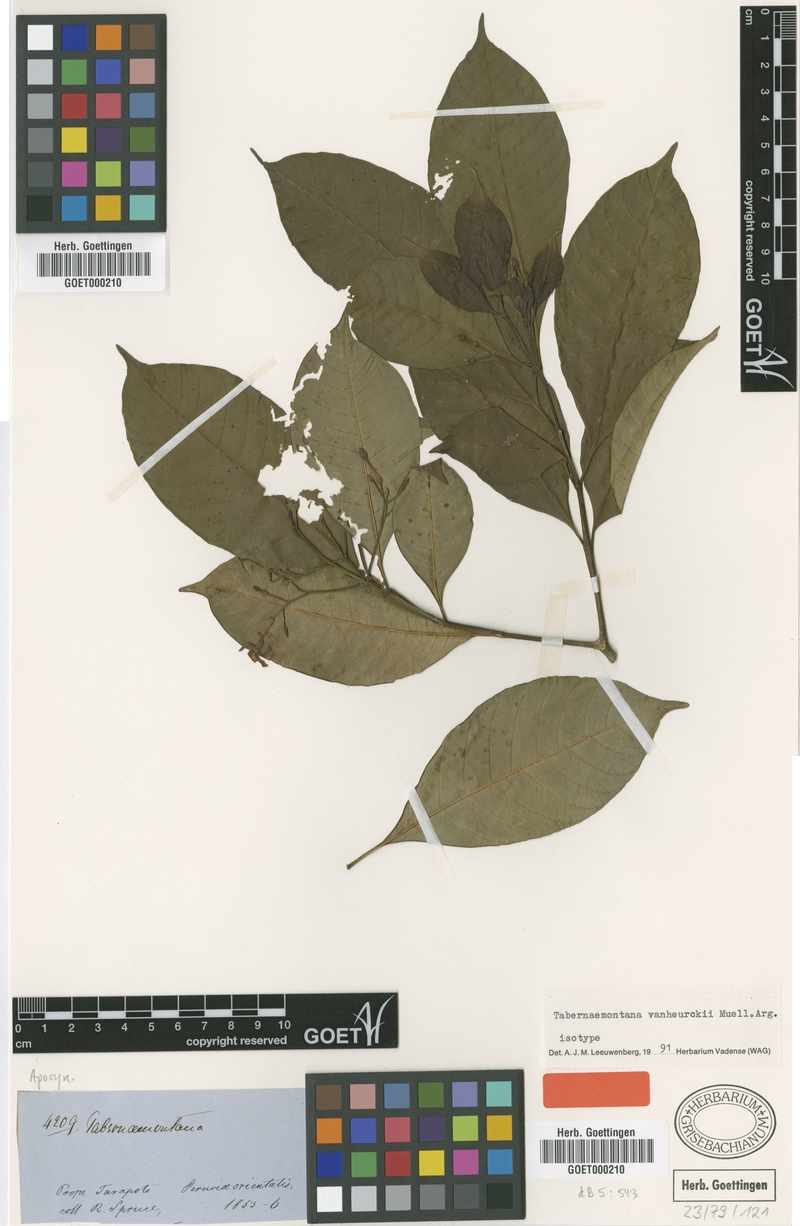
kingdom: Plantae
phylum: Tracheophyta
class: Magnoliopsida
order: Gentianales
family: Apocynaceae
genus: Tabernaemontana
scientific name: Tabernaemontana vanheurckii
